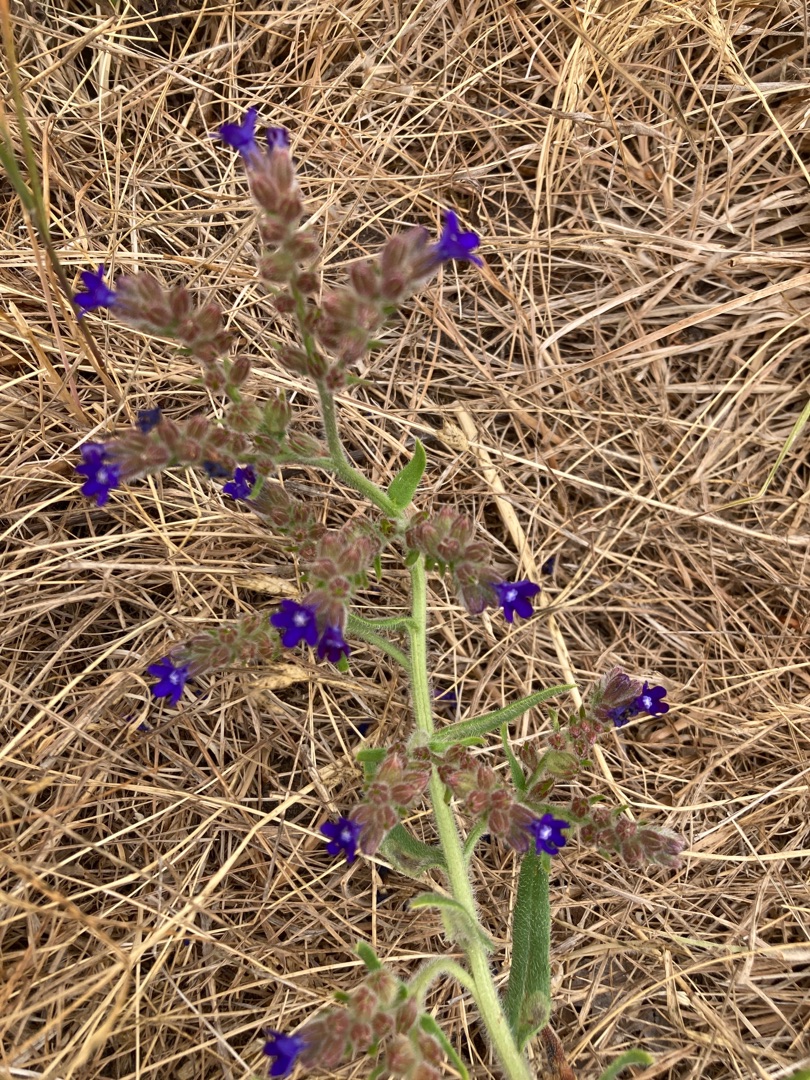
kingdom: Plantae
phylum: Tracheophyta
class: Magnoliopsida
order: Boraginales
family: Boraginaceae
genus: Anchusa
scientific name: Anchusa officinalis
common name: Læge-oksetunge
